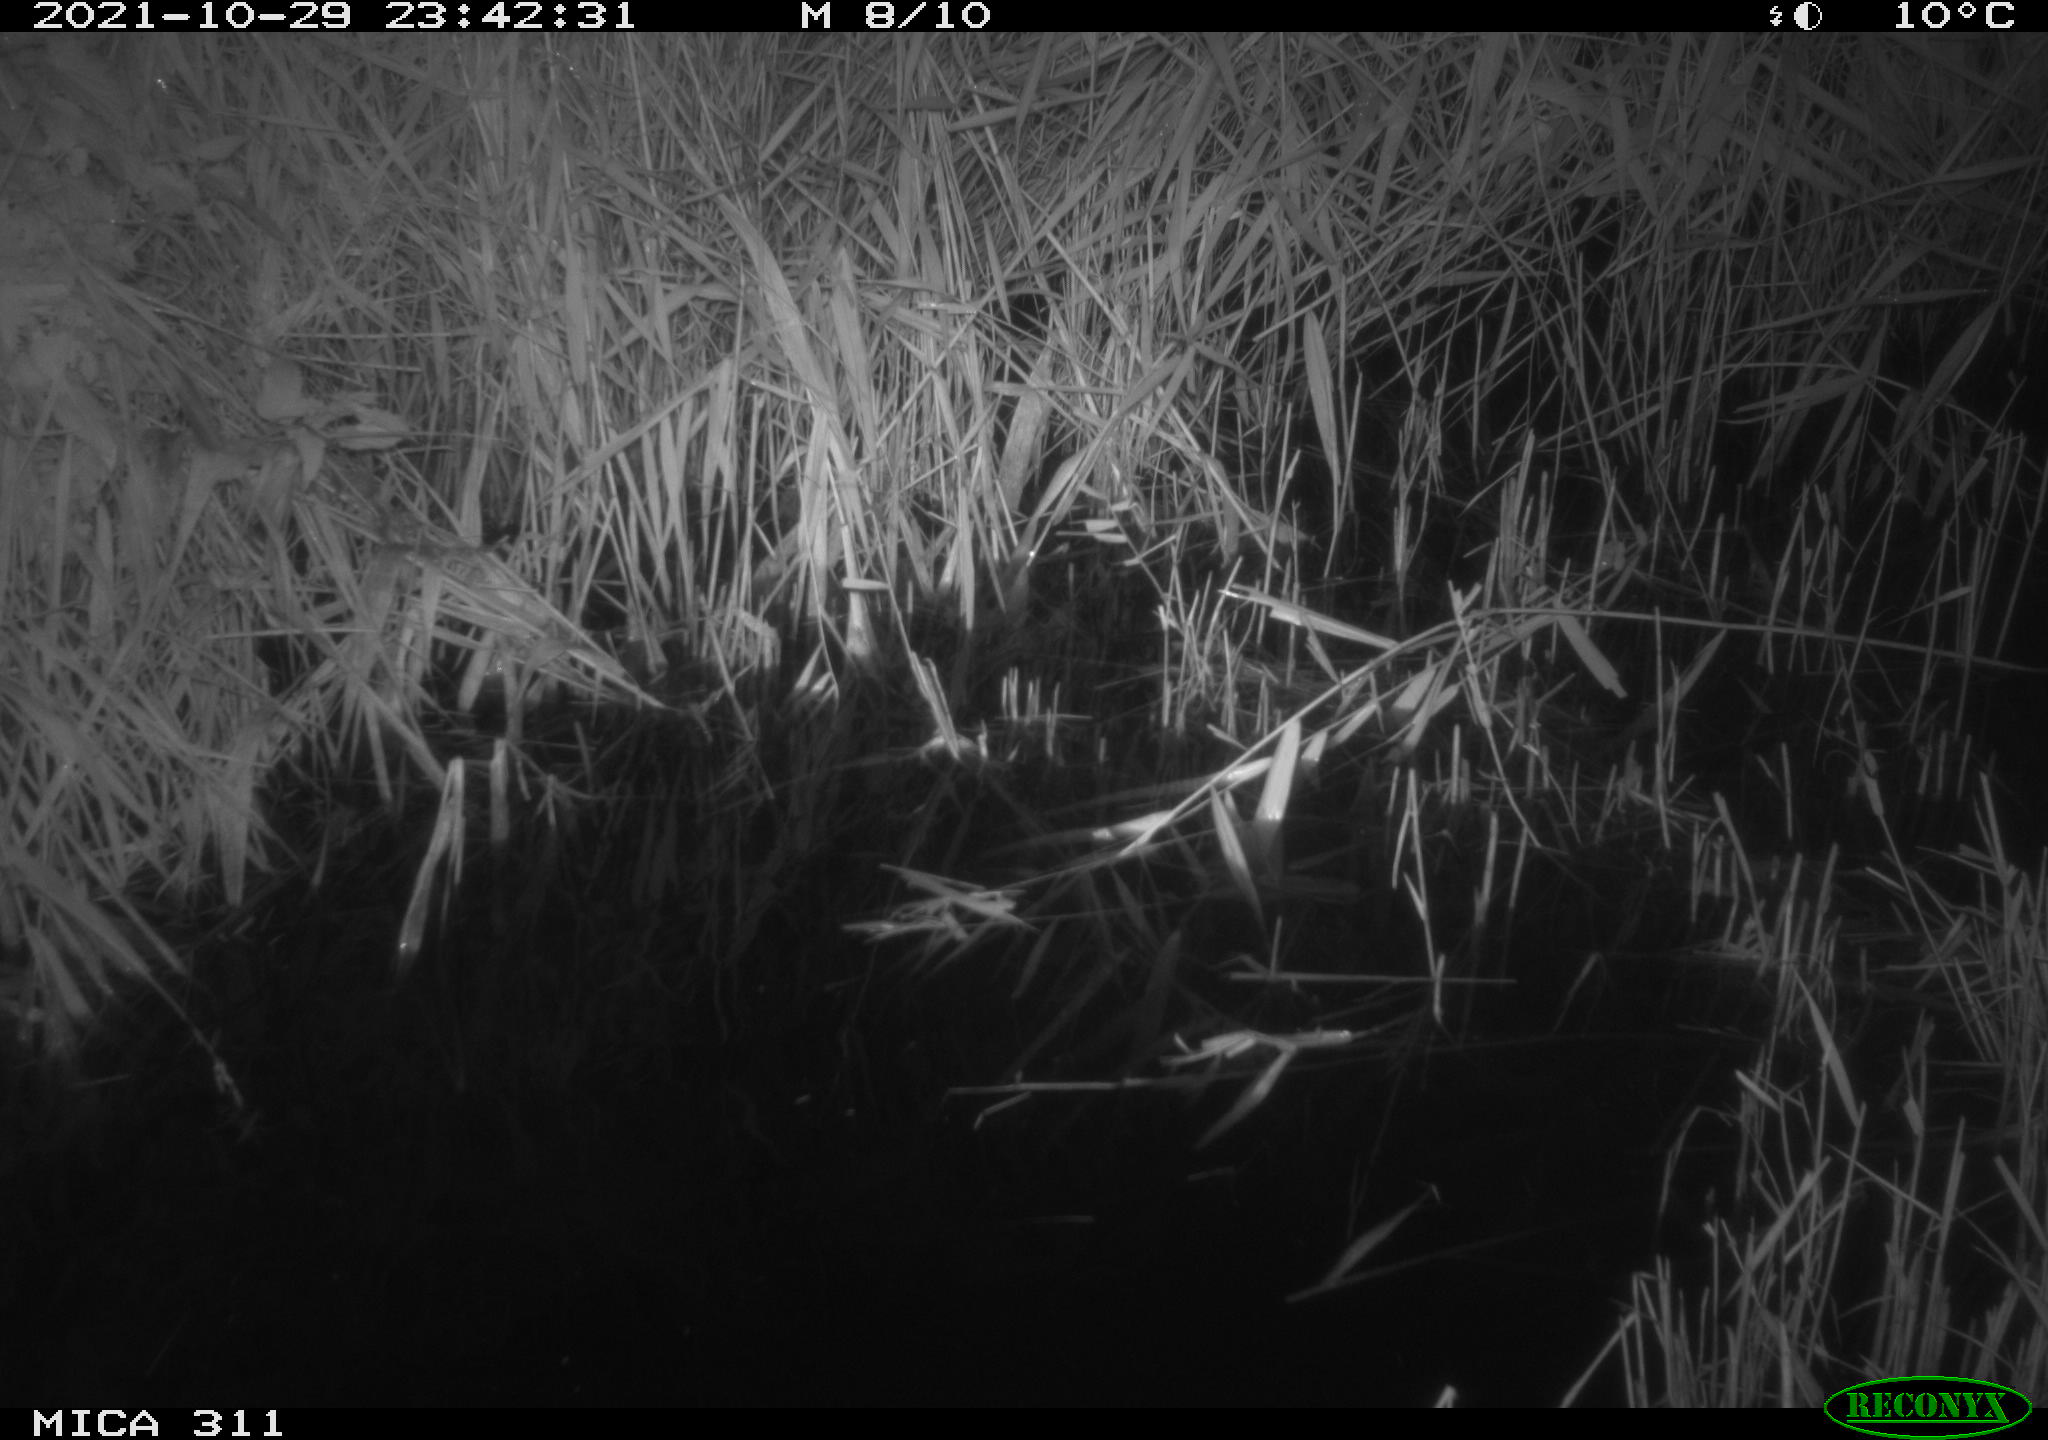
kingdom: Animalia
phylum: Chordata
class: Mammalia
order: Rodentia
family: Muridae
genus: Rattus
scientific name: Rattus norvegicus
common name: Brown rat
